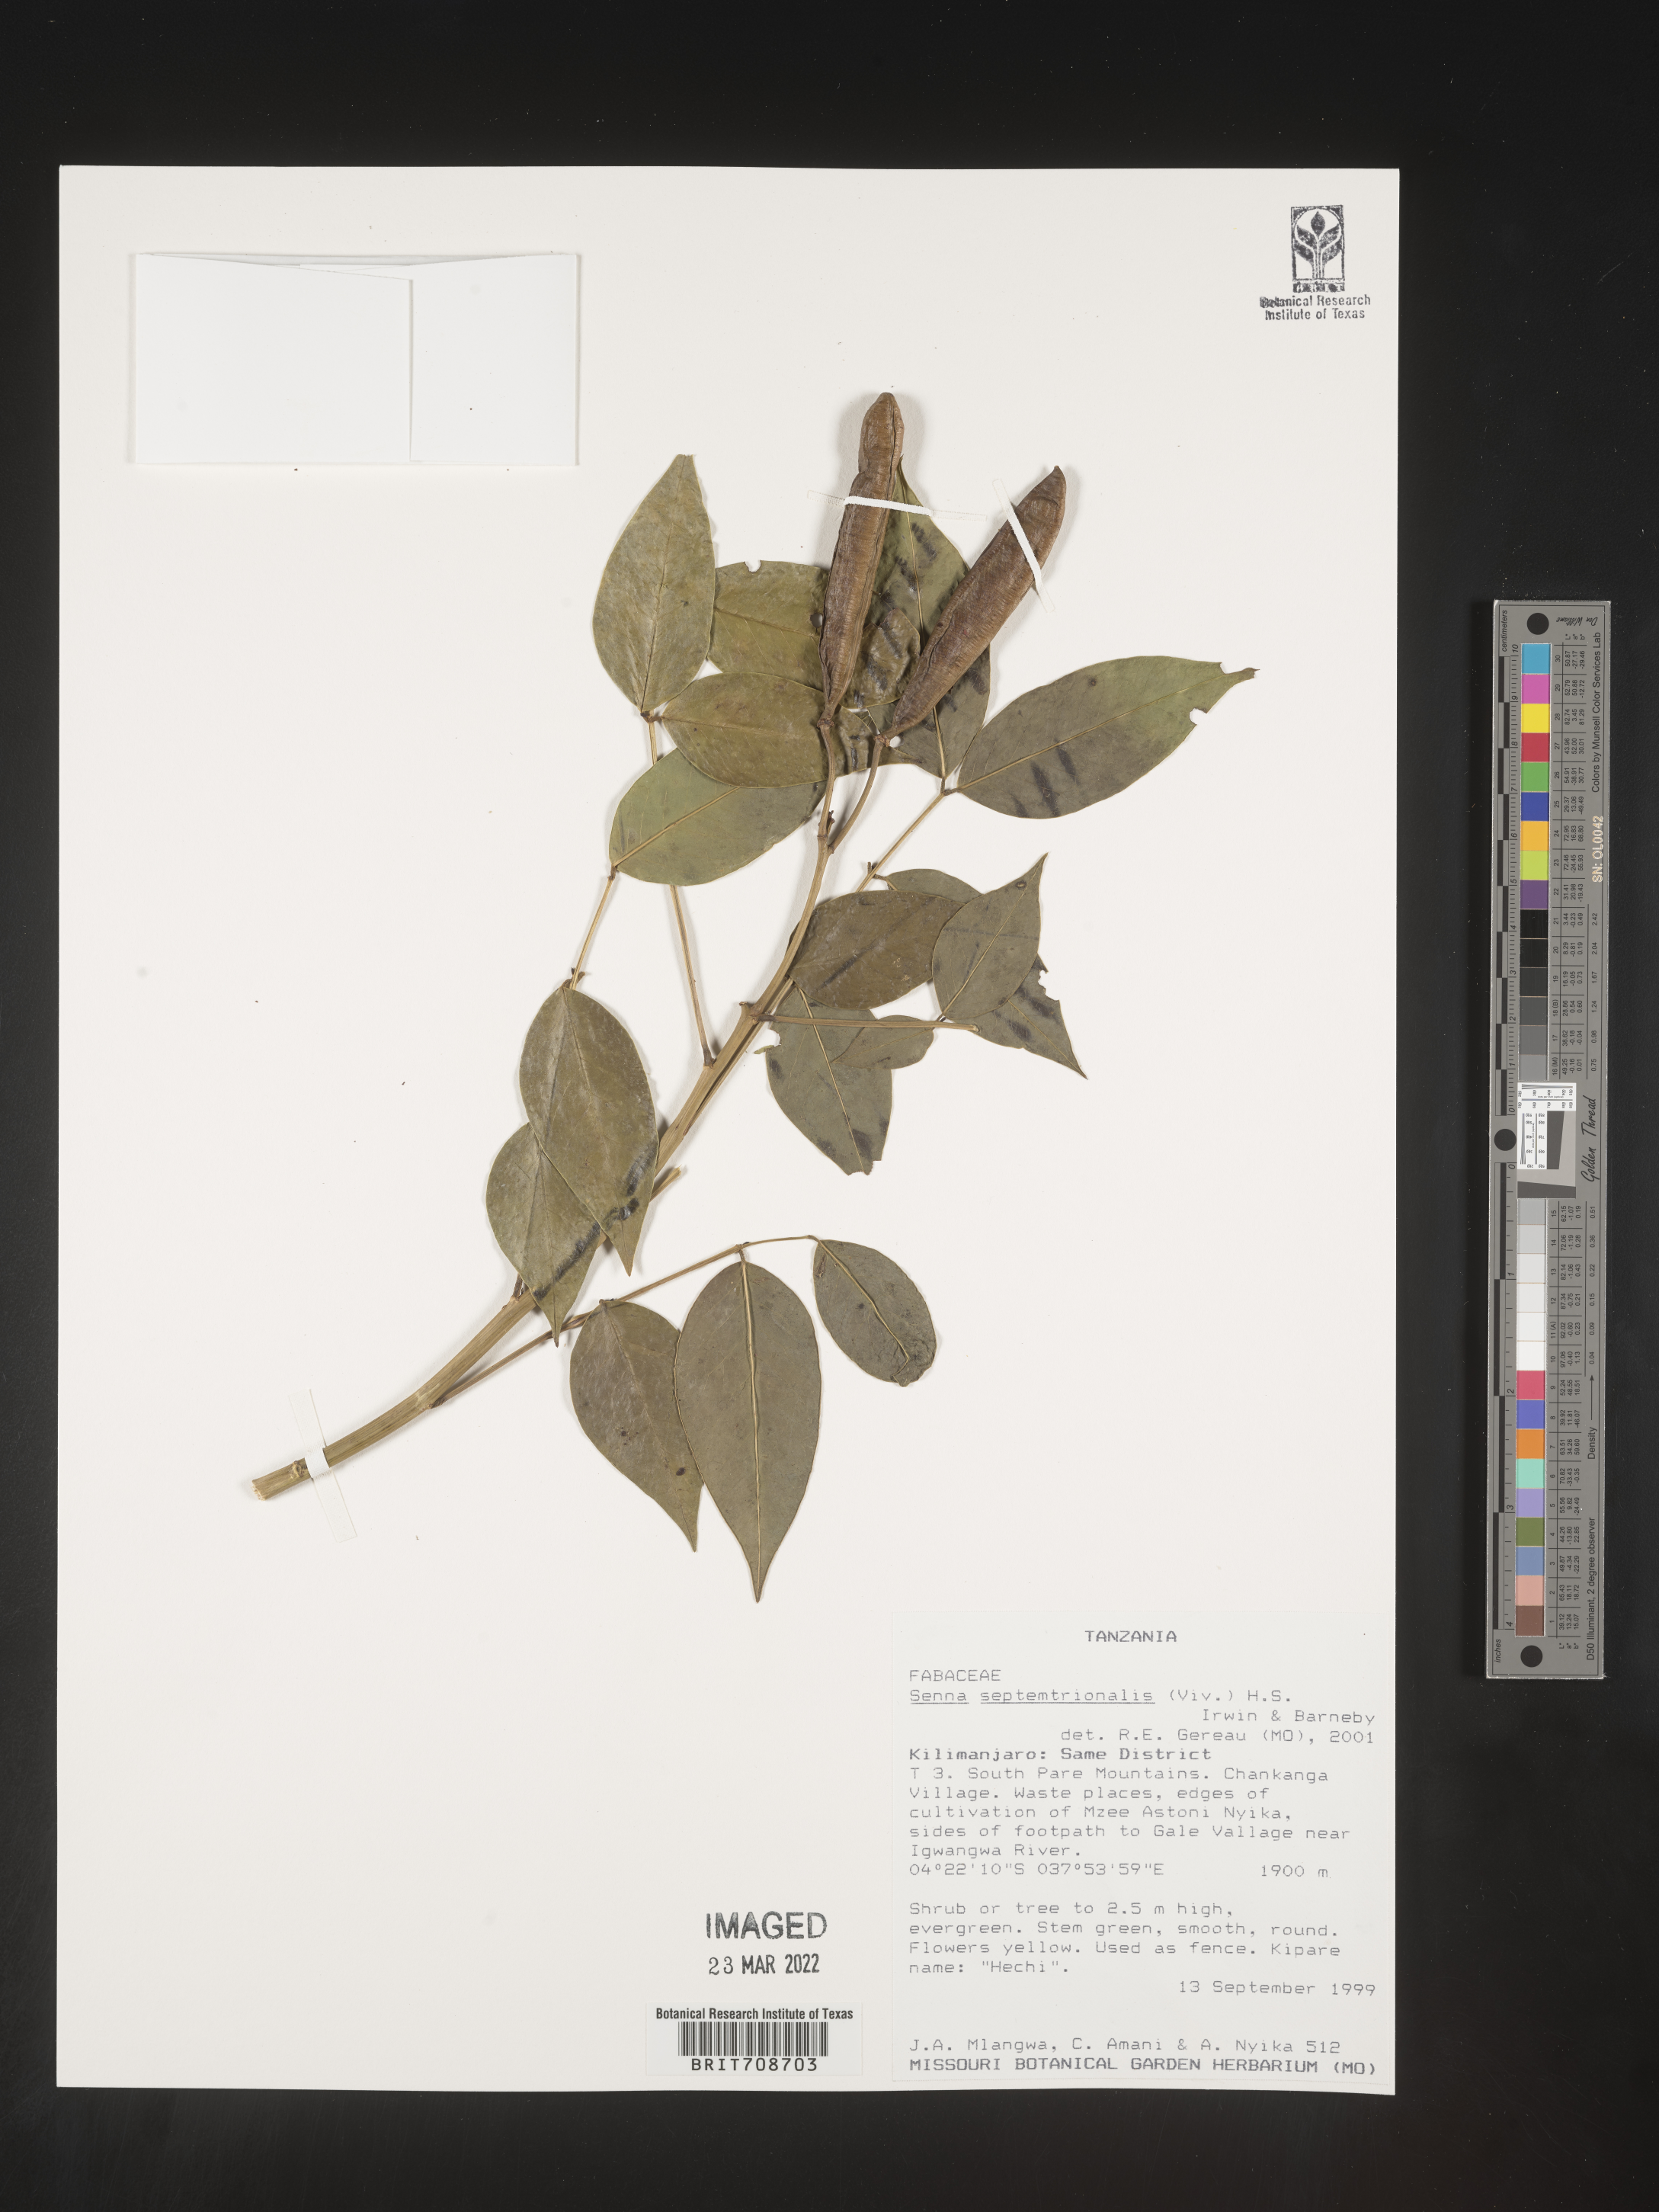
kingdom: Plantae
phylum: Tracheophyta
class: Magnoliopsida
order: Fabales
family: Fabaceae
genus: Senna
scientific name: Senna
